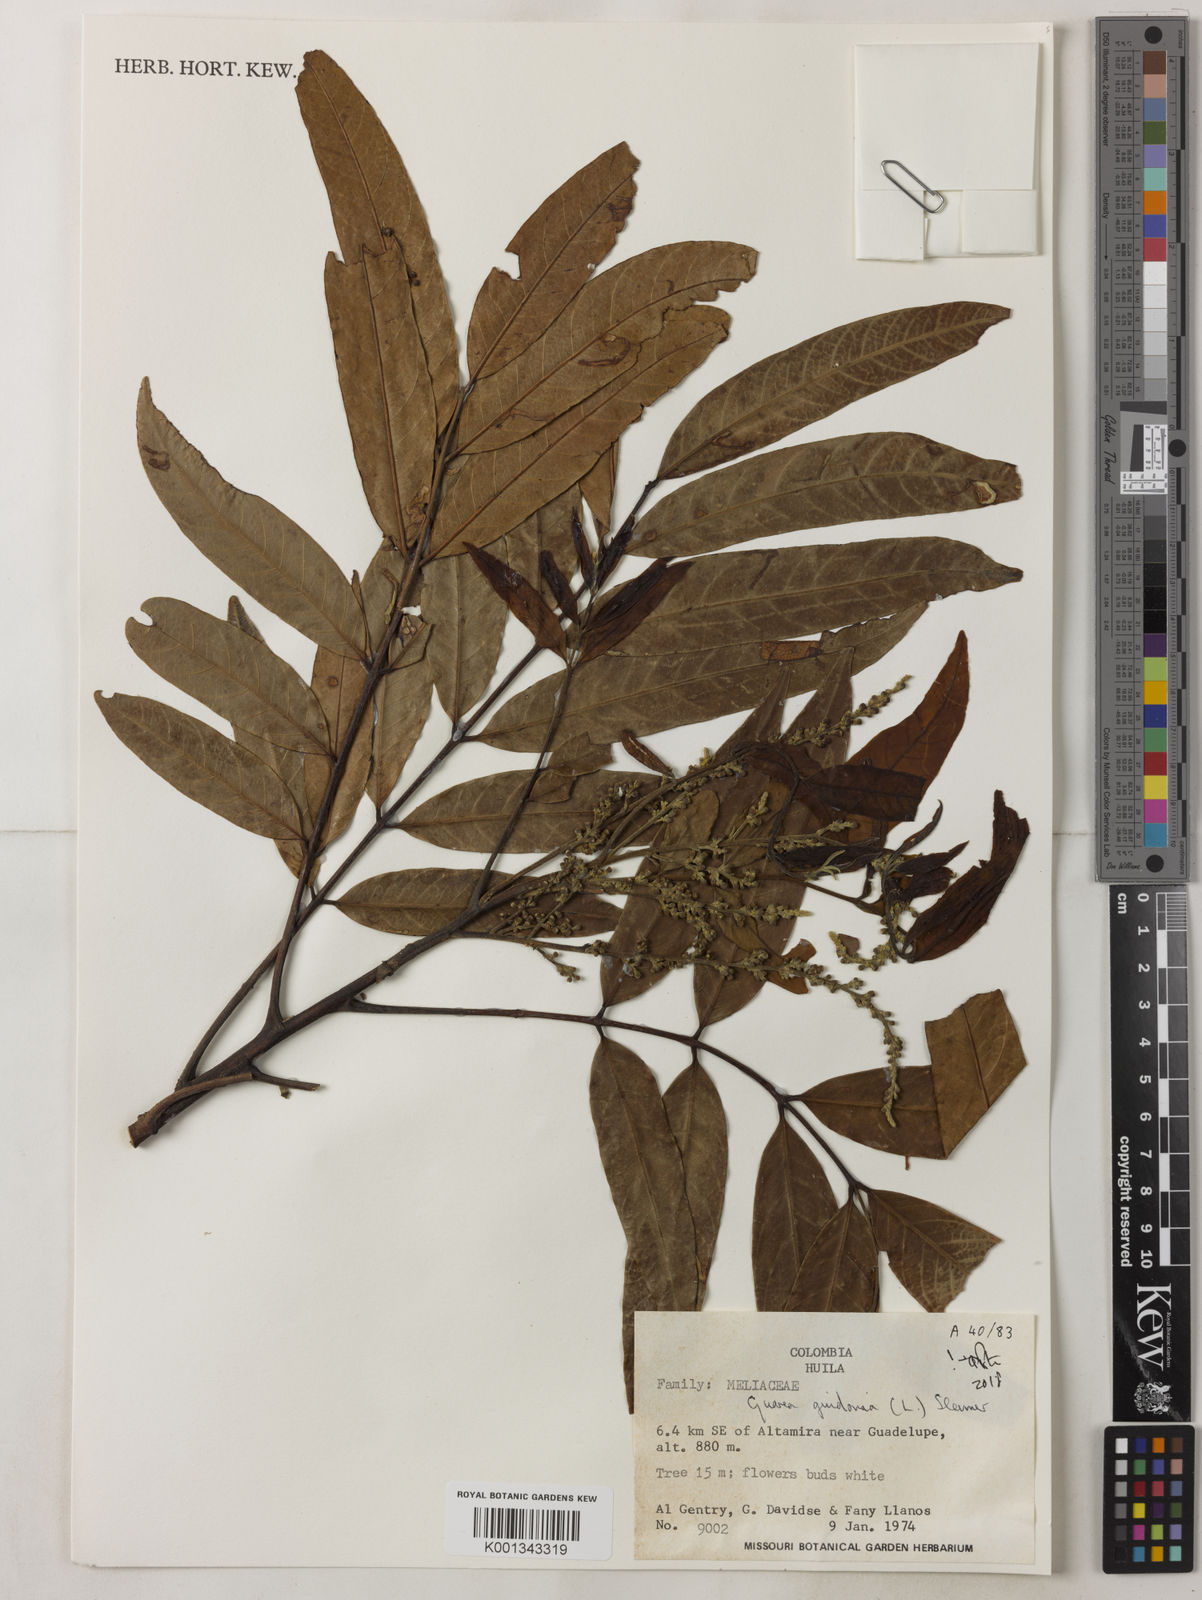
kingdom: Plantae
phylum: Tracheophyta
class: Magnoliopsida
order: Sapindales
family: Meliaceae
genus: Guarea
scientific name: Guarea guidonia
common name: American muskwood
